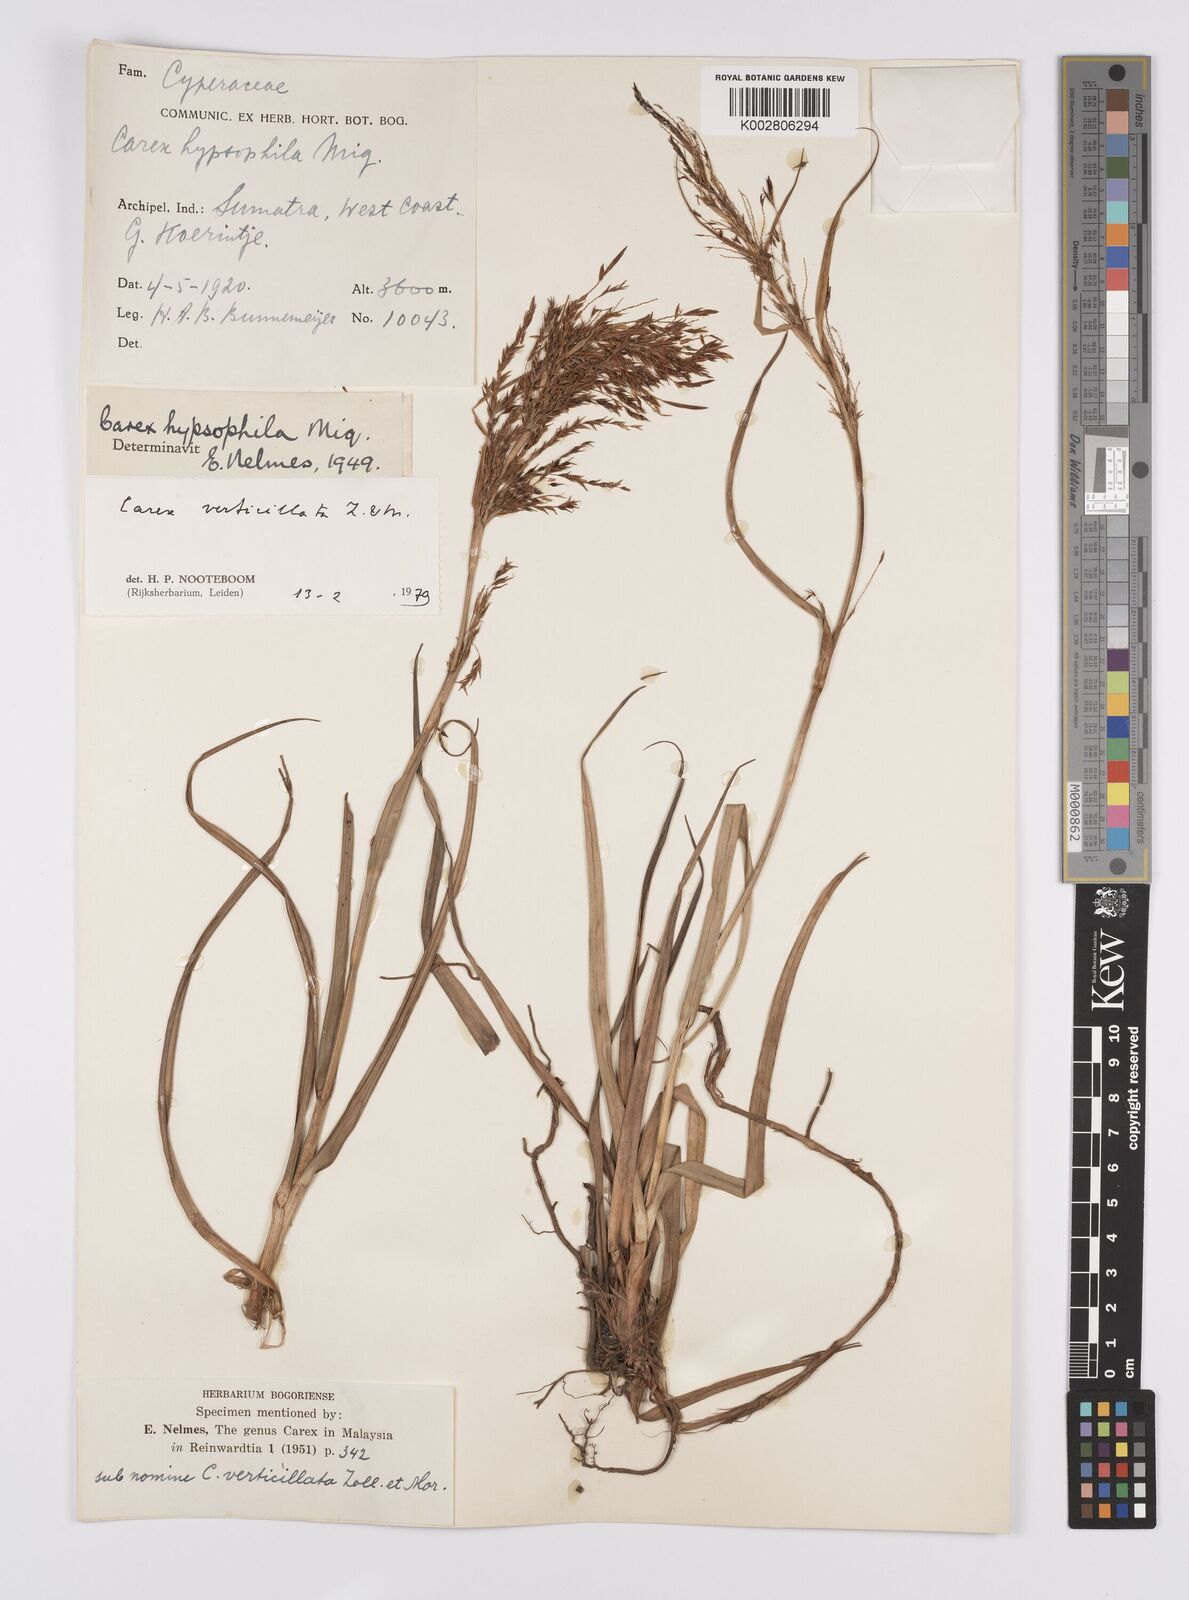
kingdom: Plantae
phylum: Tracheophyta
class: Liliopsida
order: Poales
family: Cyperaceae
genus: Carex
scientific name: Carex verticillata
